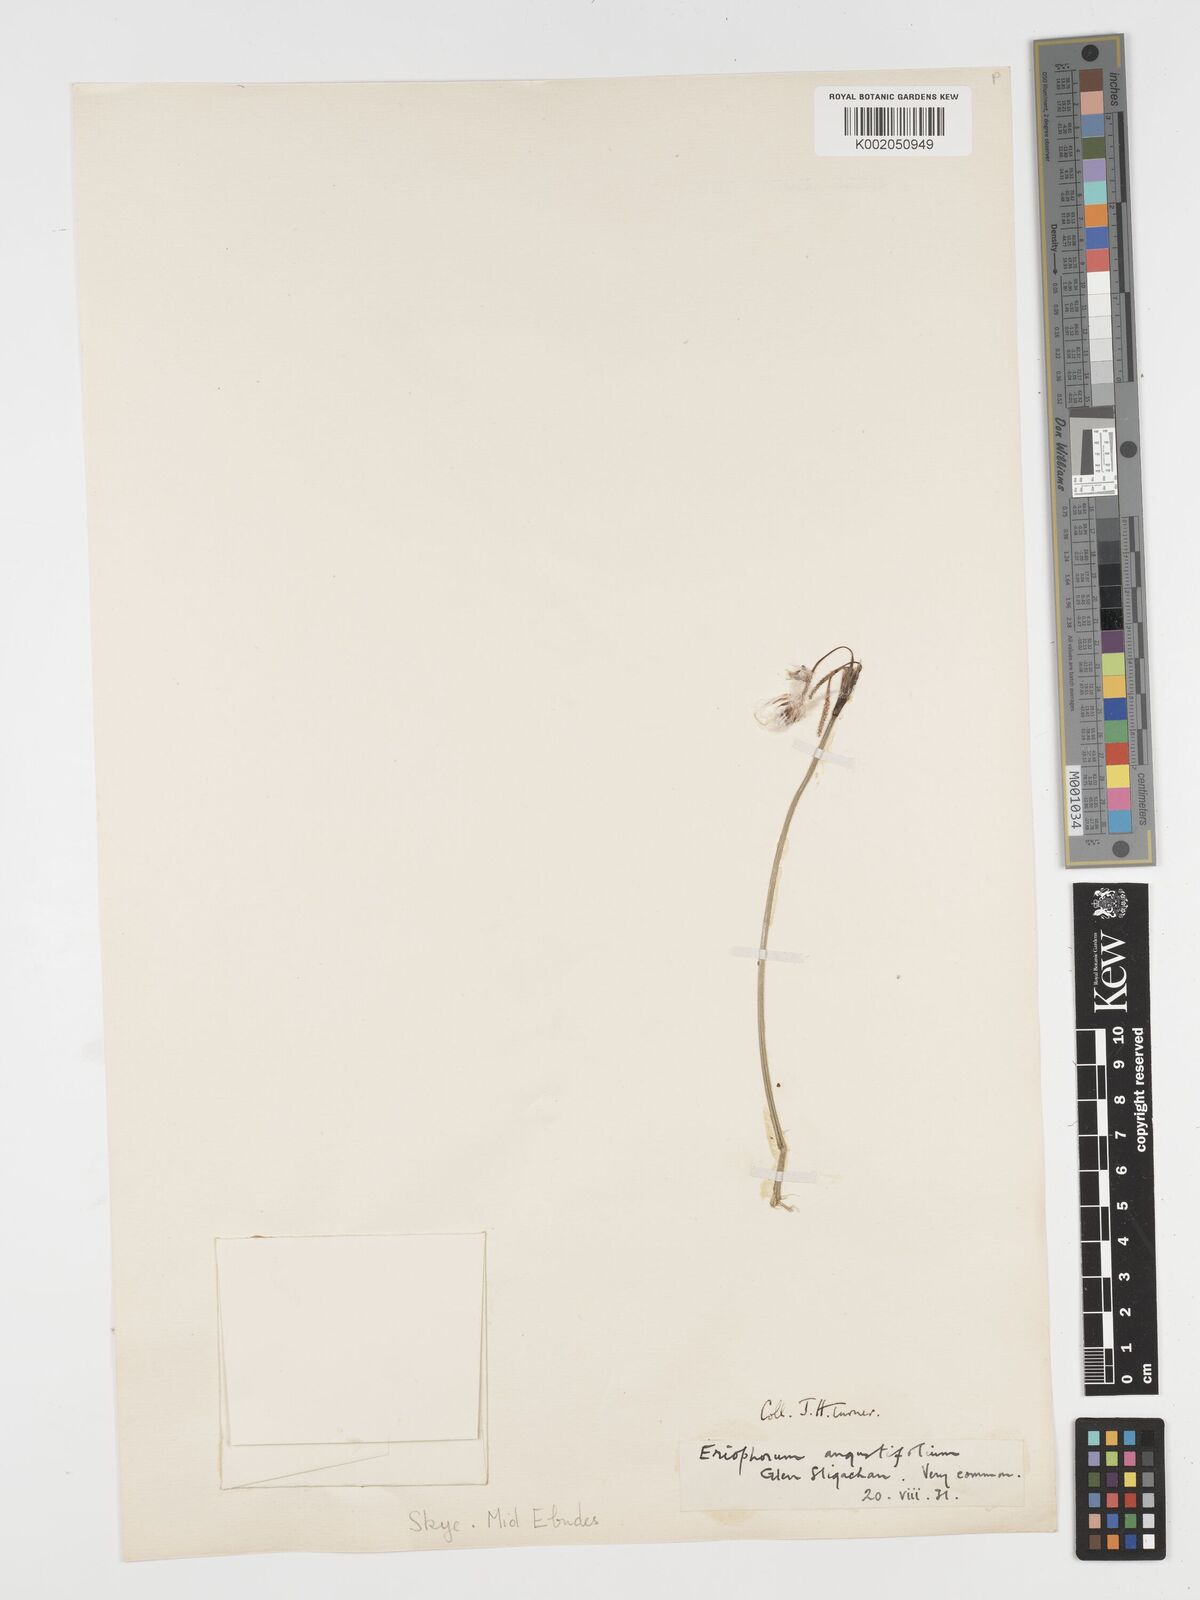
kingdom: Plantae
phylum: Tracheophyta
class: Liliopsida
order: Poales
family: Cyperaceae
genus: Eriophorum
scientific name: Eriophorum angustifolium
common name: Common cottongrass
